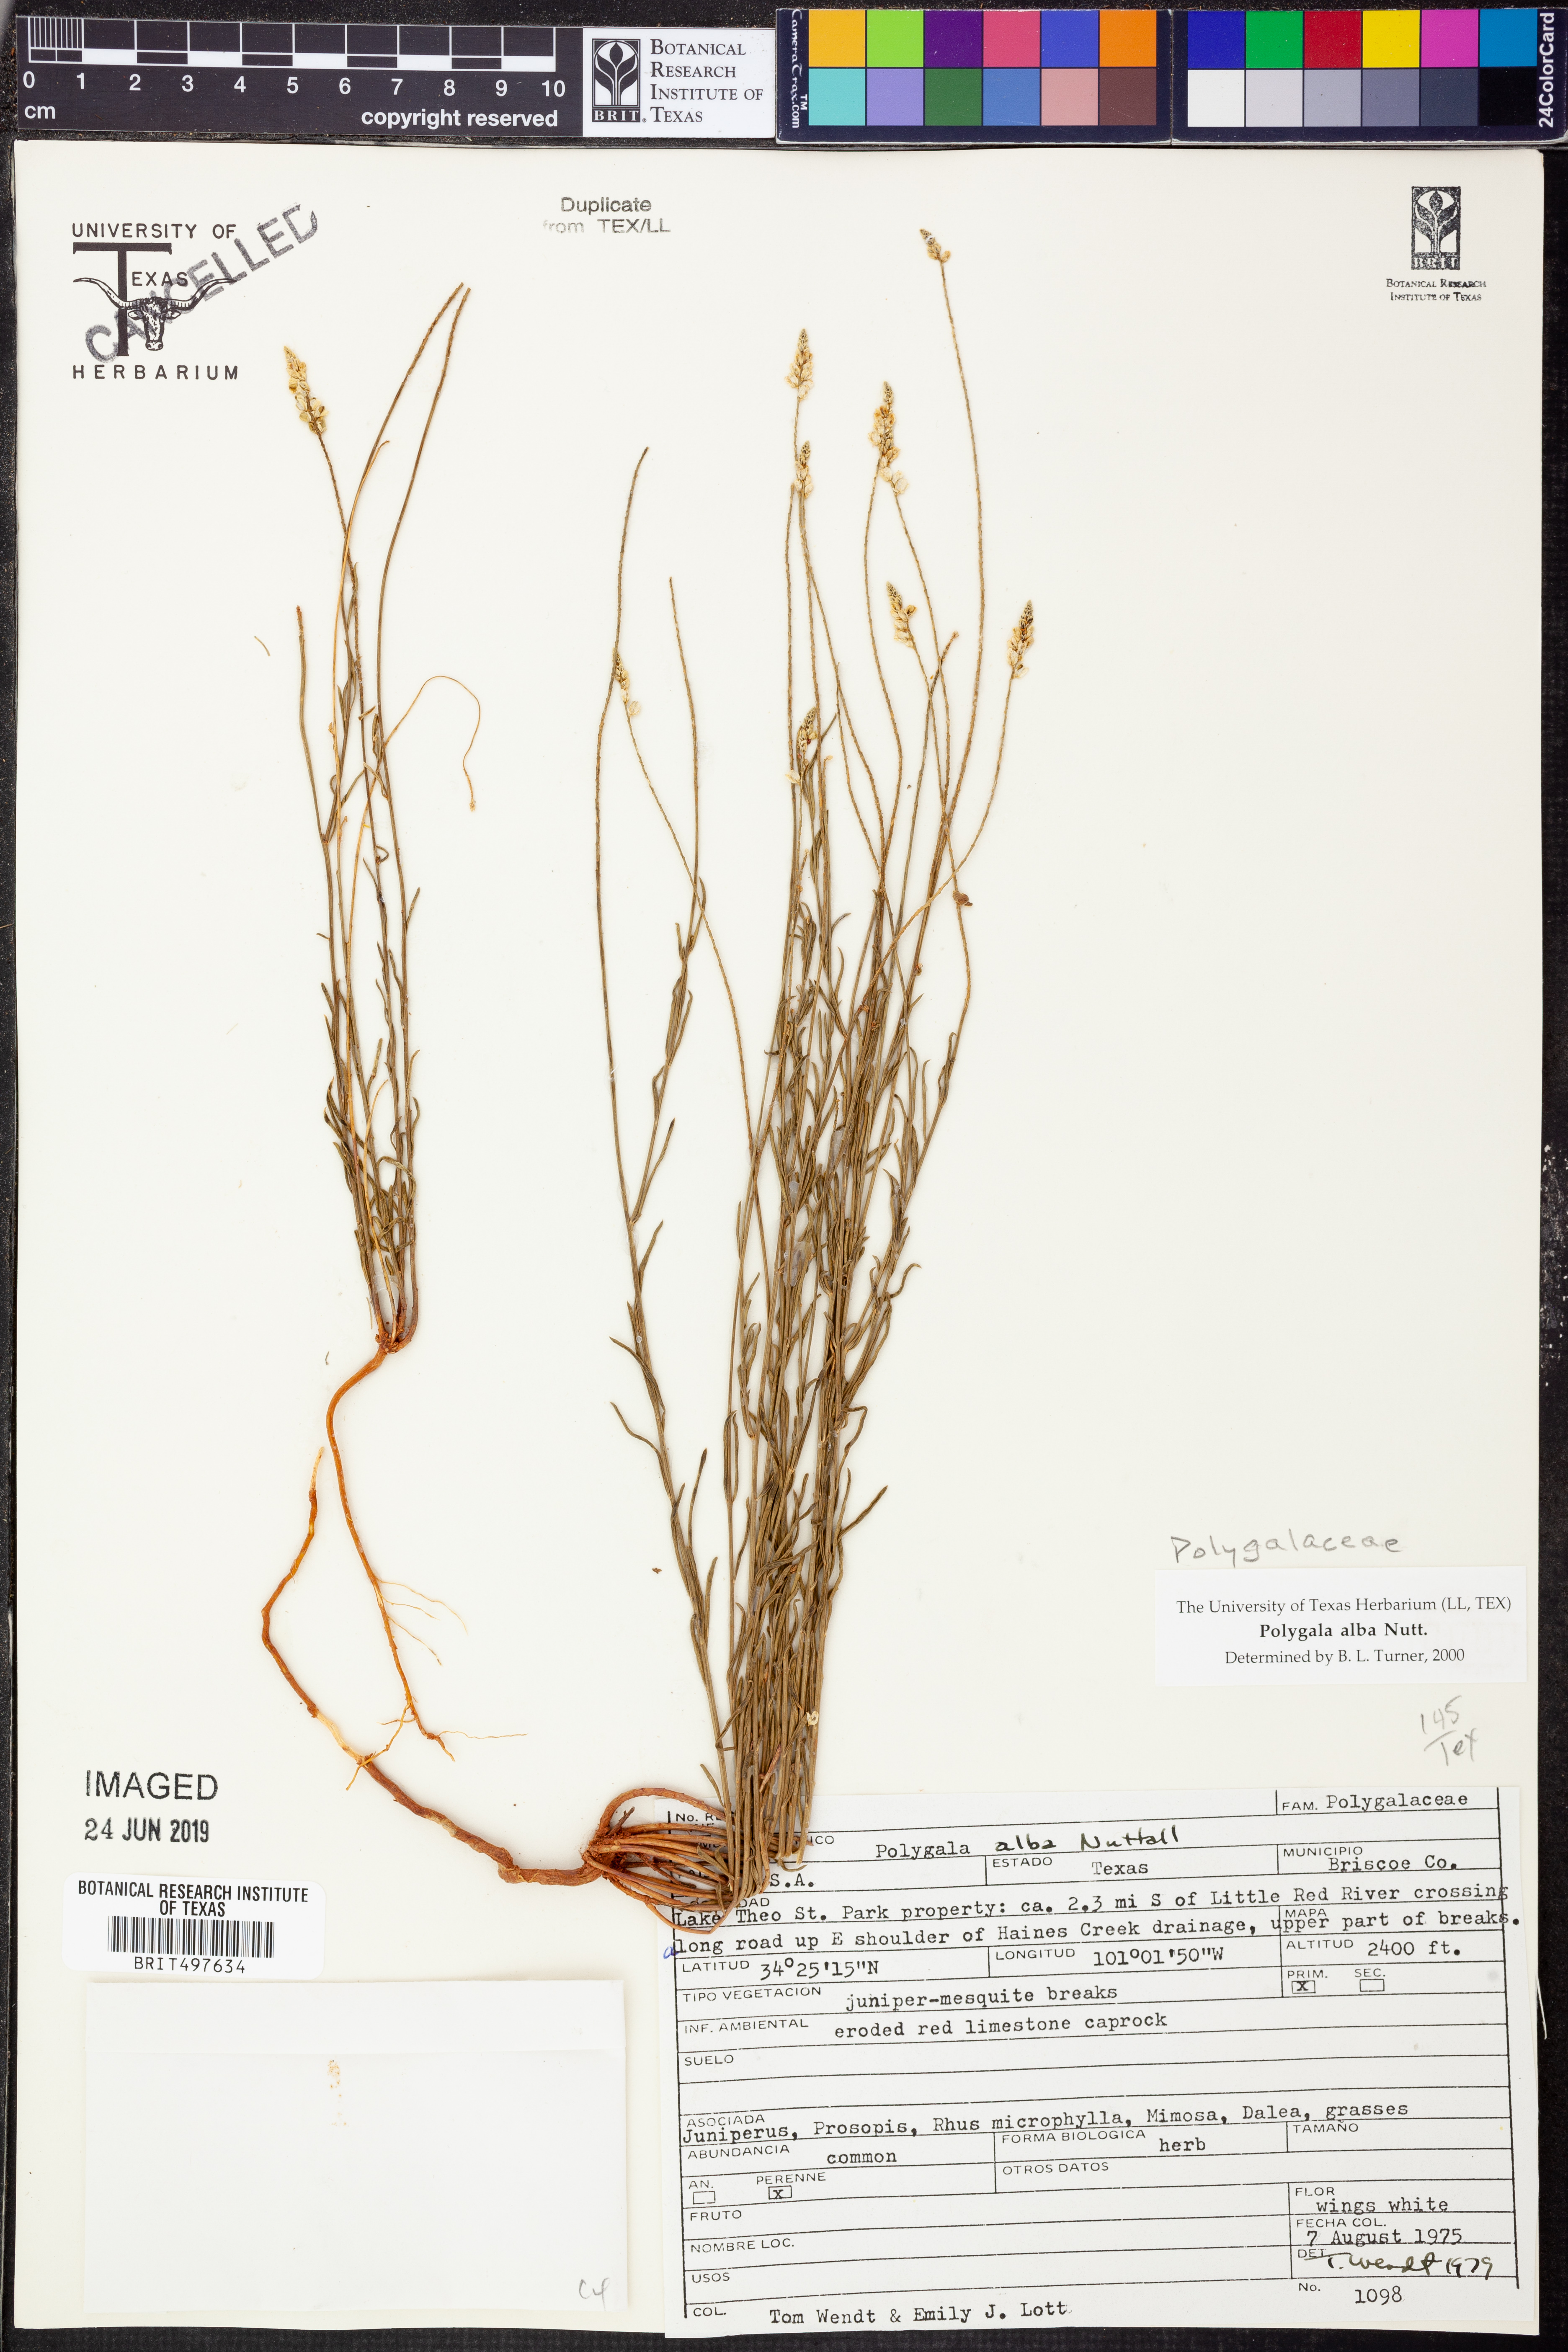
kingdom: Plantae
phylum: Tracheophyta
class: Magnoliopsida
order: Fabales
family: Polygalaceae
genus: Polygala
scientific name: Polygala alba
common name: White milkwort
